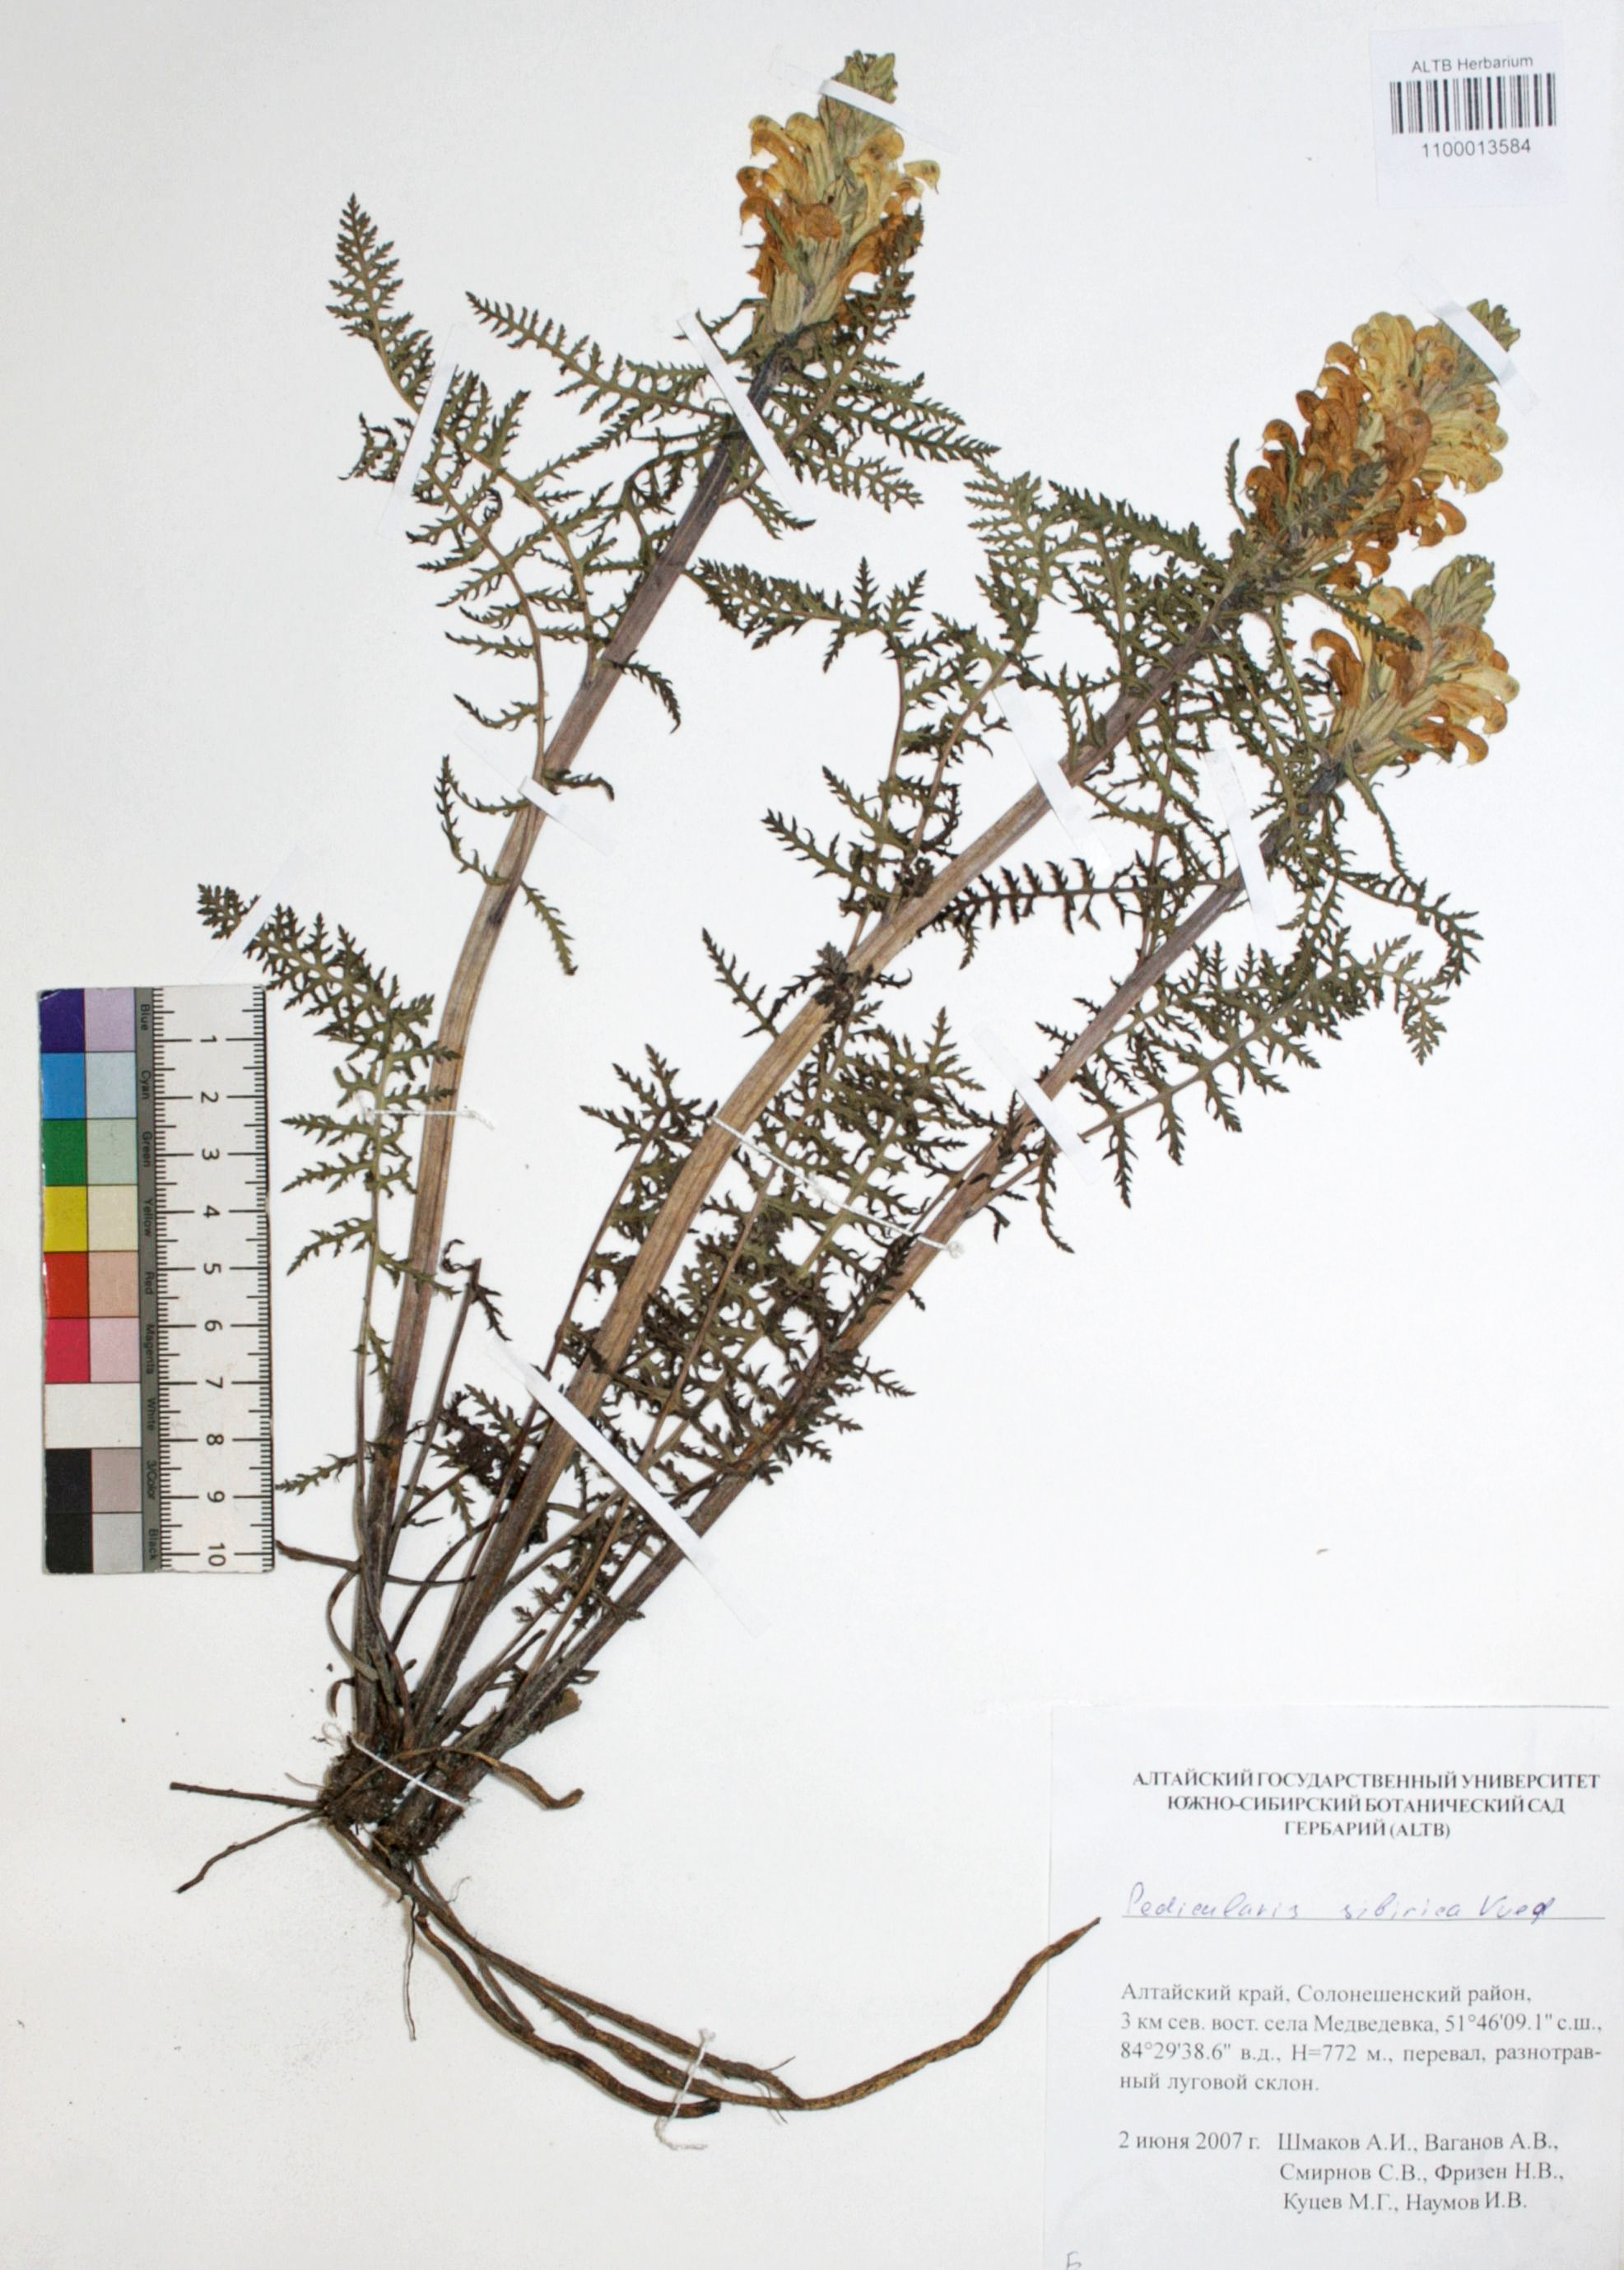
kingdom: Plantae
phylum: Tracheophyta
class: Magnoliopsida
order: Lamiales
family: Orobanchaceae
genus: Pedicularis
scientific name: Pedicularis sibirica
